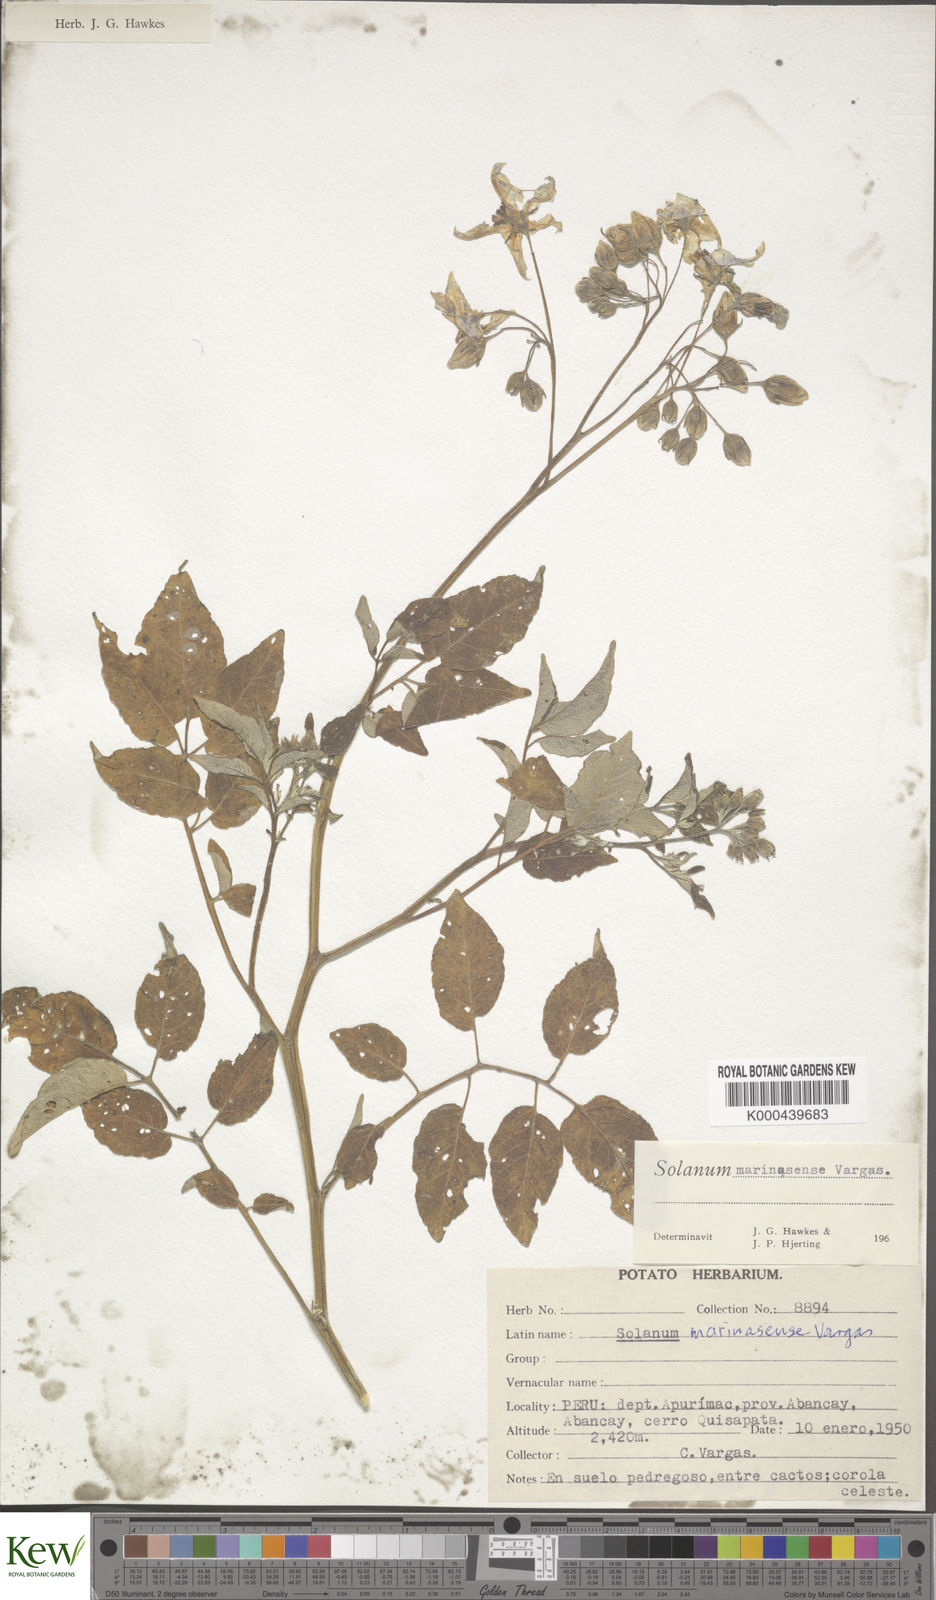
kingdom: Plantae
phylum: Tracheophyta
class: Magnoliopsida
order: Solanales
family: Solanaceae
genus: Solanum
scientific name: Solanum candolleanum
